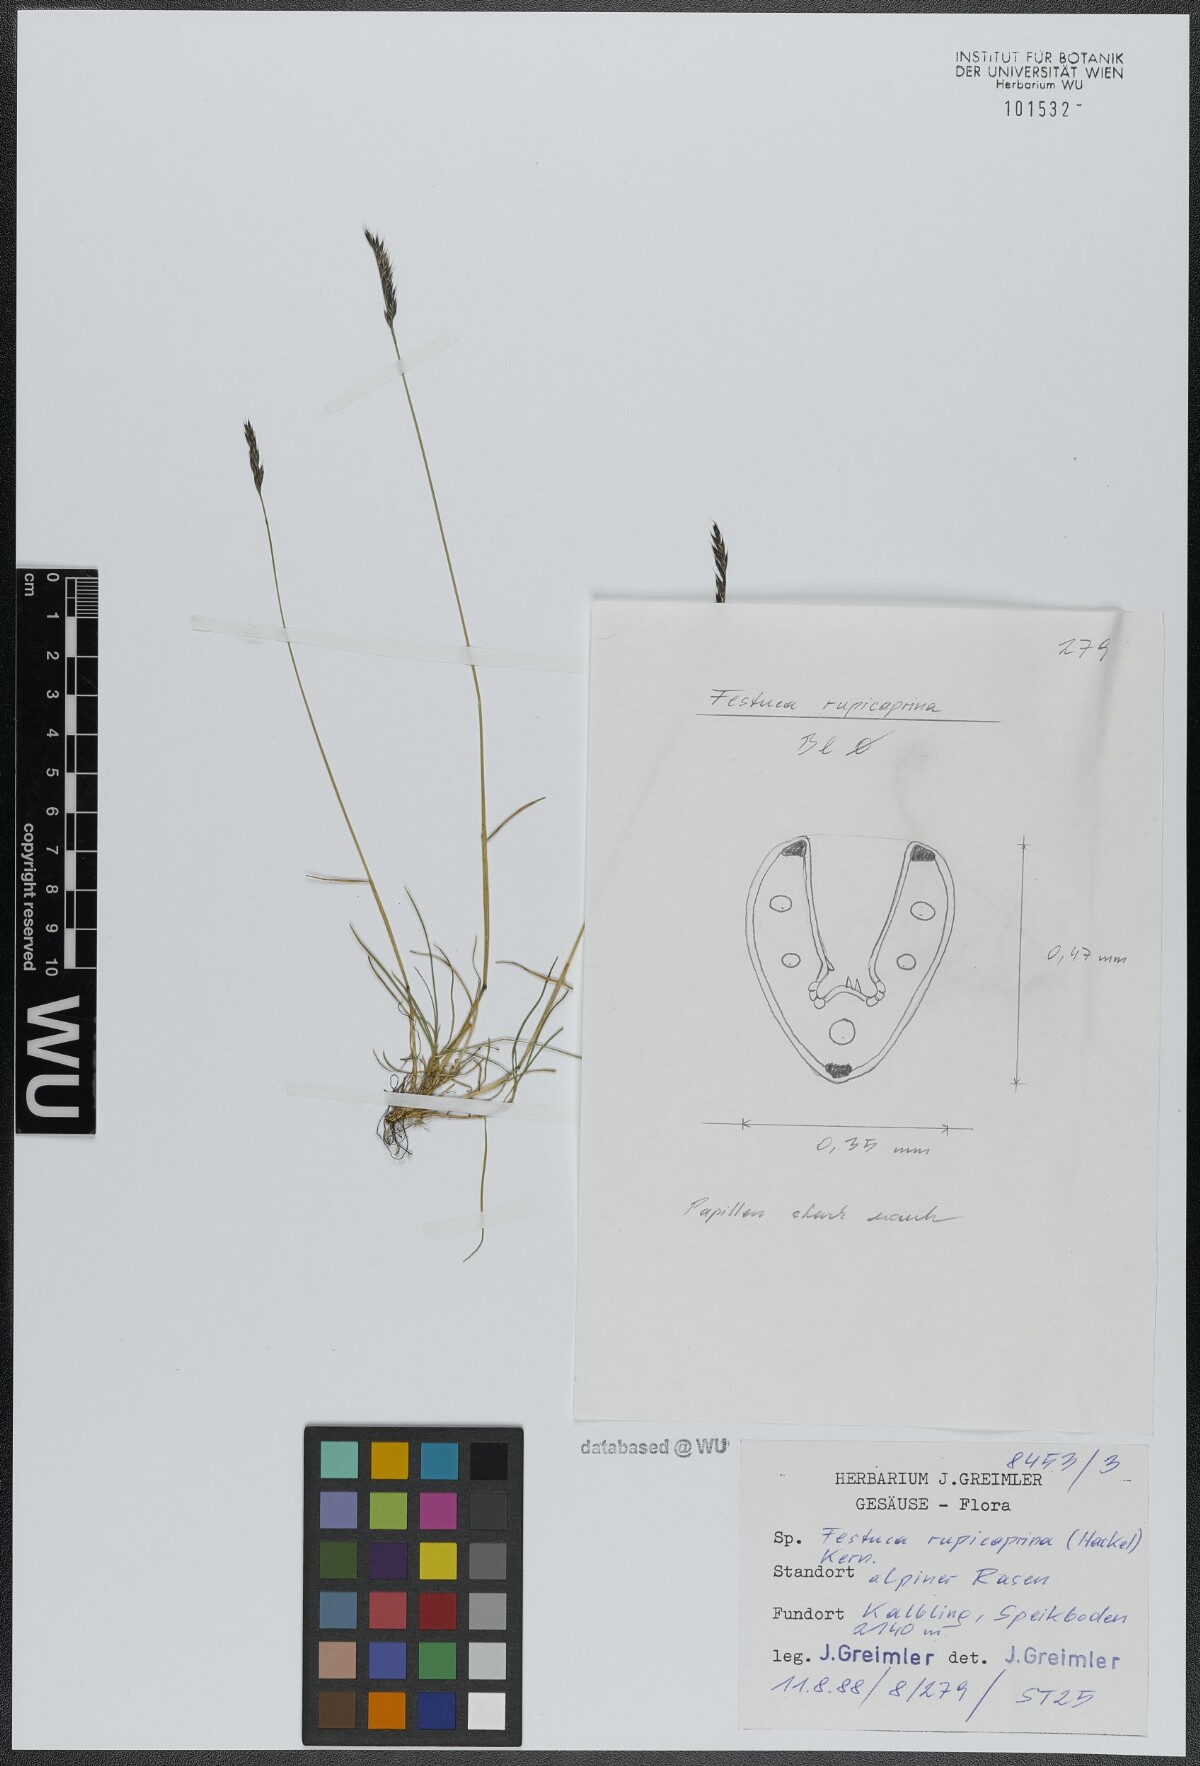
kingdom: Plantae
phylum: Tracheophyta
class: Liliopsida
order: Poales
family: Poaceae
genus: Festuca
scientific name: Festuca rupicaprina
